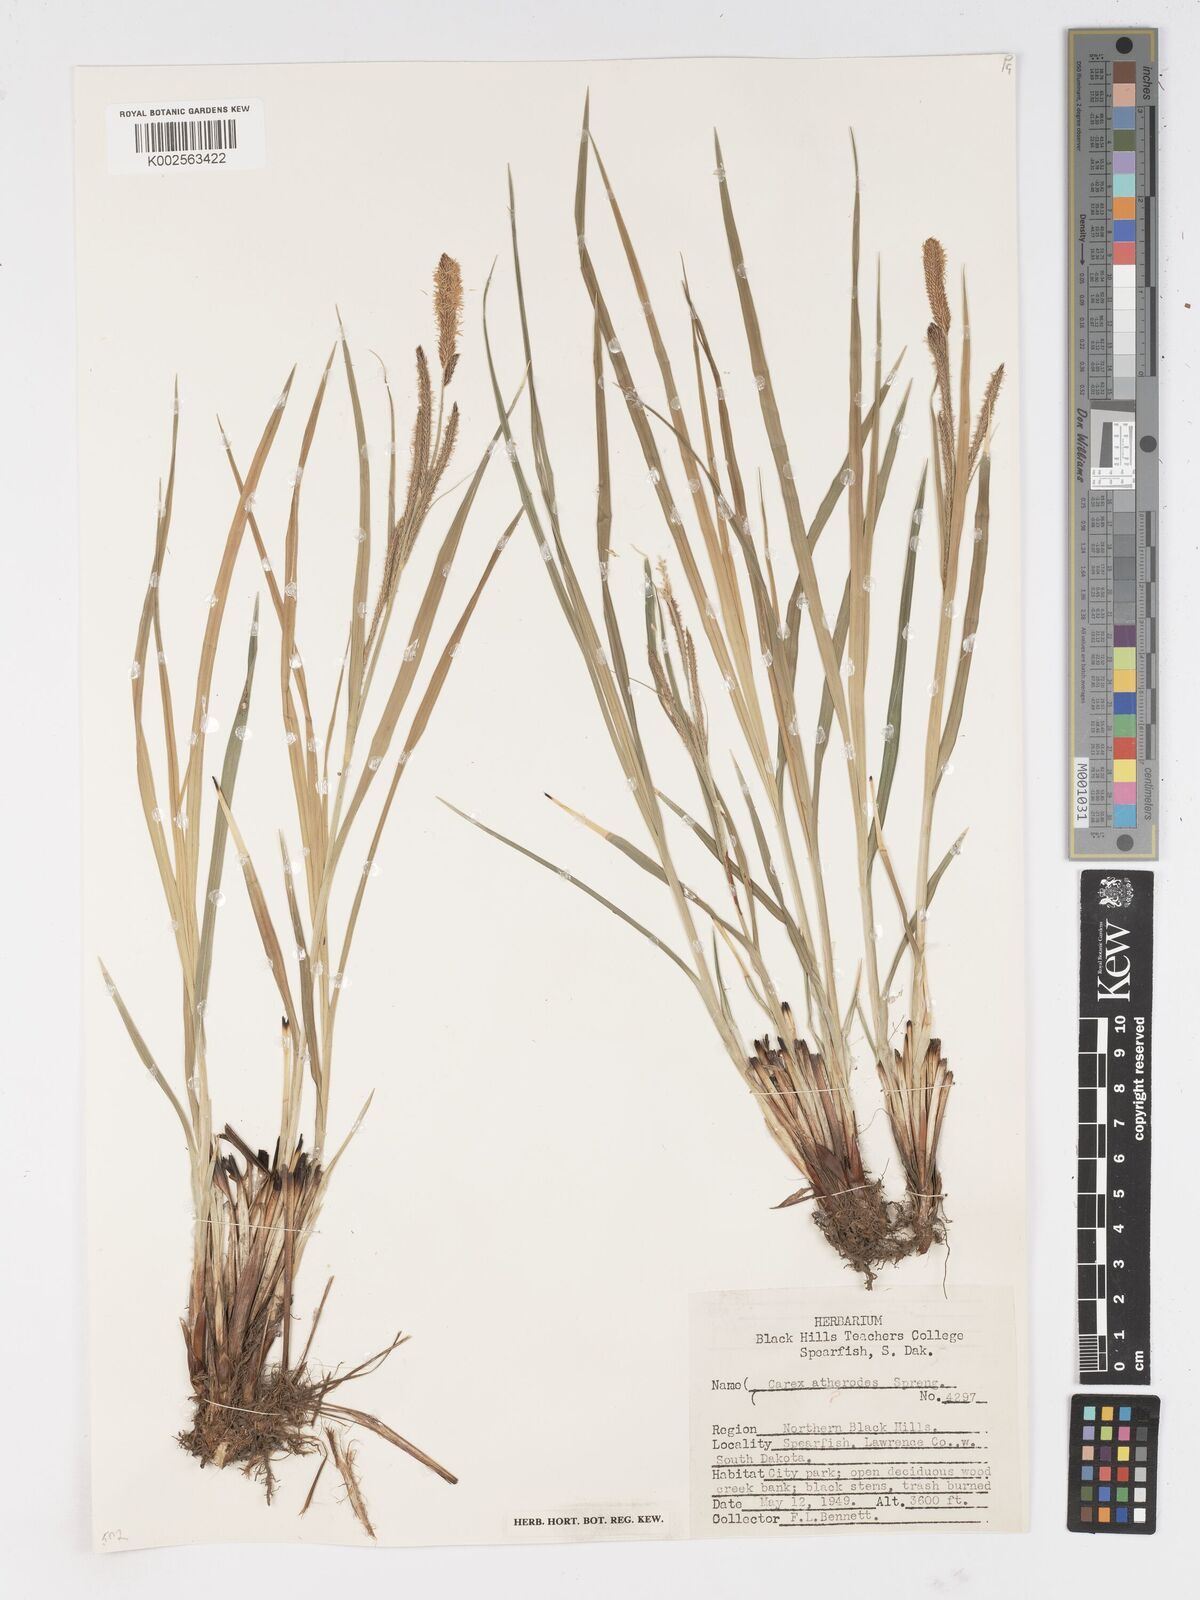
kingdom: Plantae
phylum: Tracheophyta
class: Liliopsida
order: Poales
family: Cyperaceae
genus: Carex
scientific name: Carex atherodes
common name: Wheat sedge
